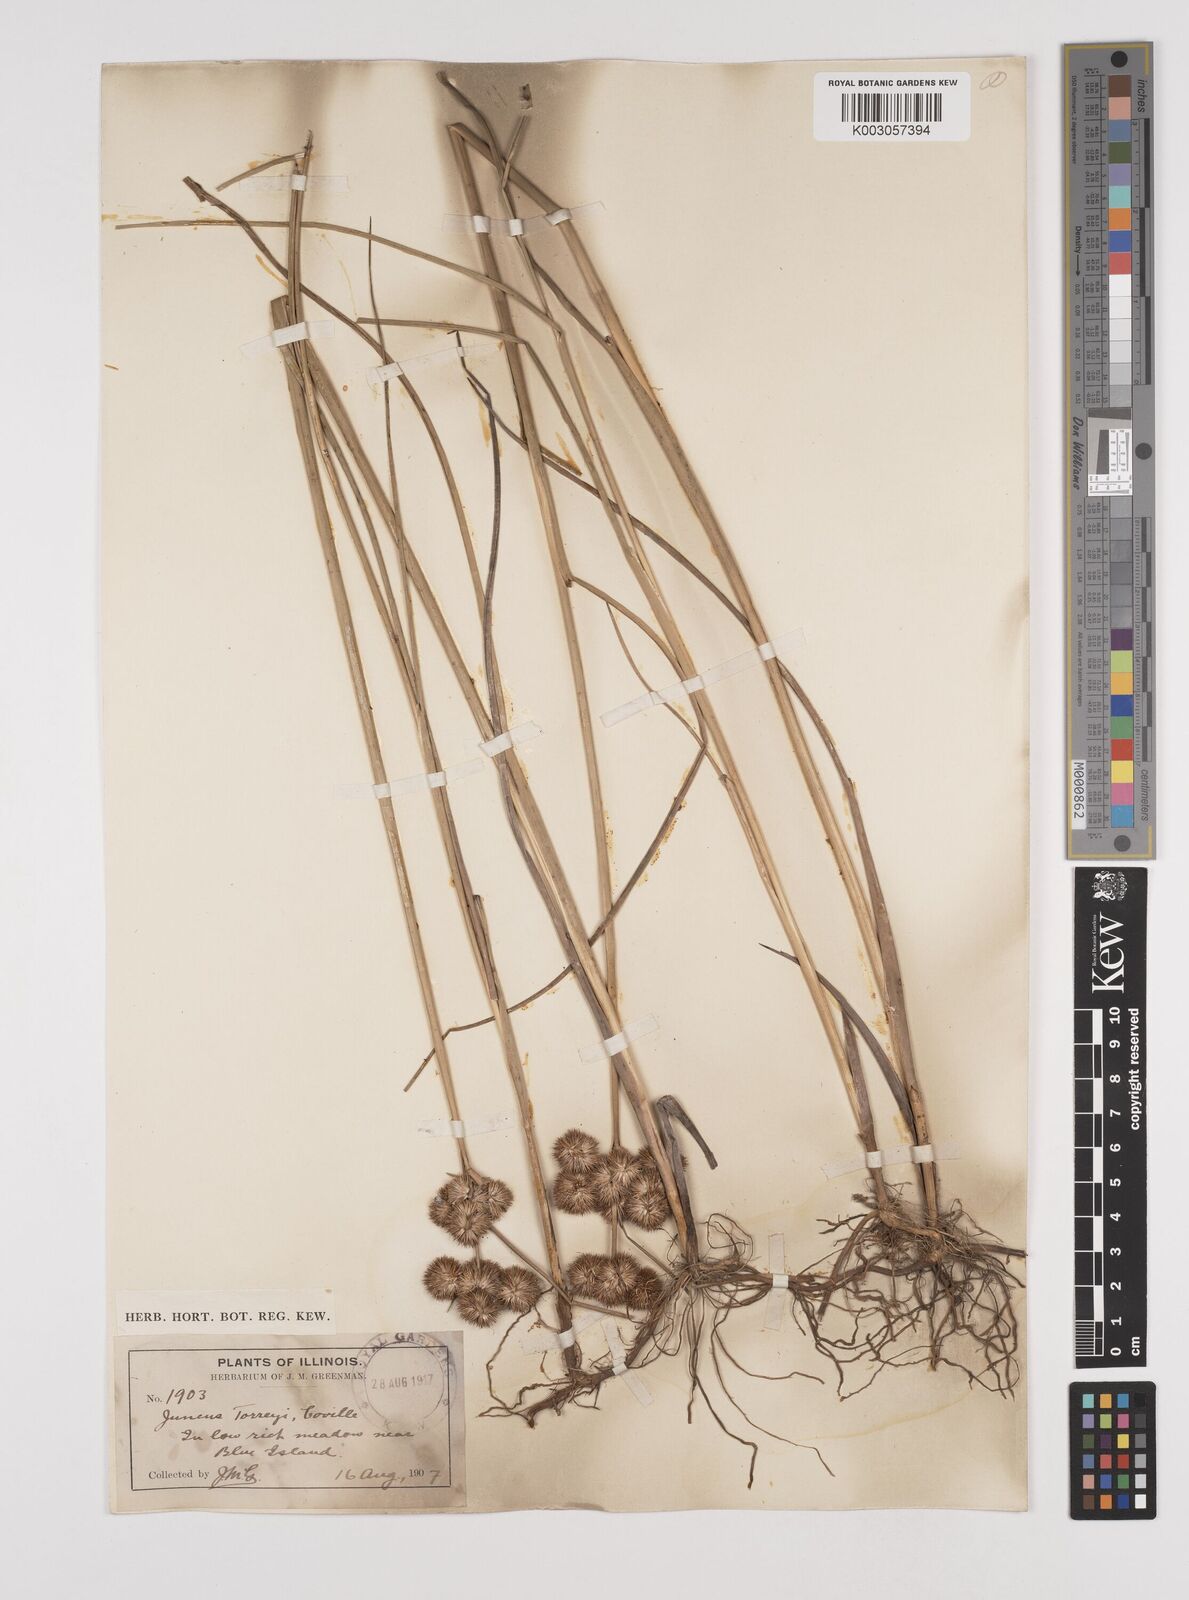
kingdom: Plantae
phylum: Tracheophyta
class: Liliopsida
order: Poales
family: Juncaceae
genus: Juncus
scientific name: Juncus torreyi
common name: Torrey's rush
